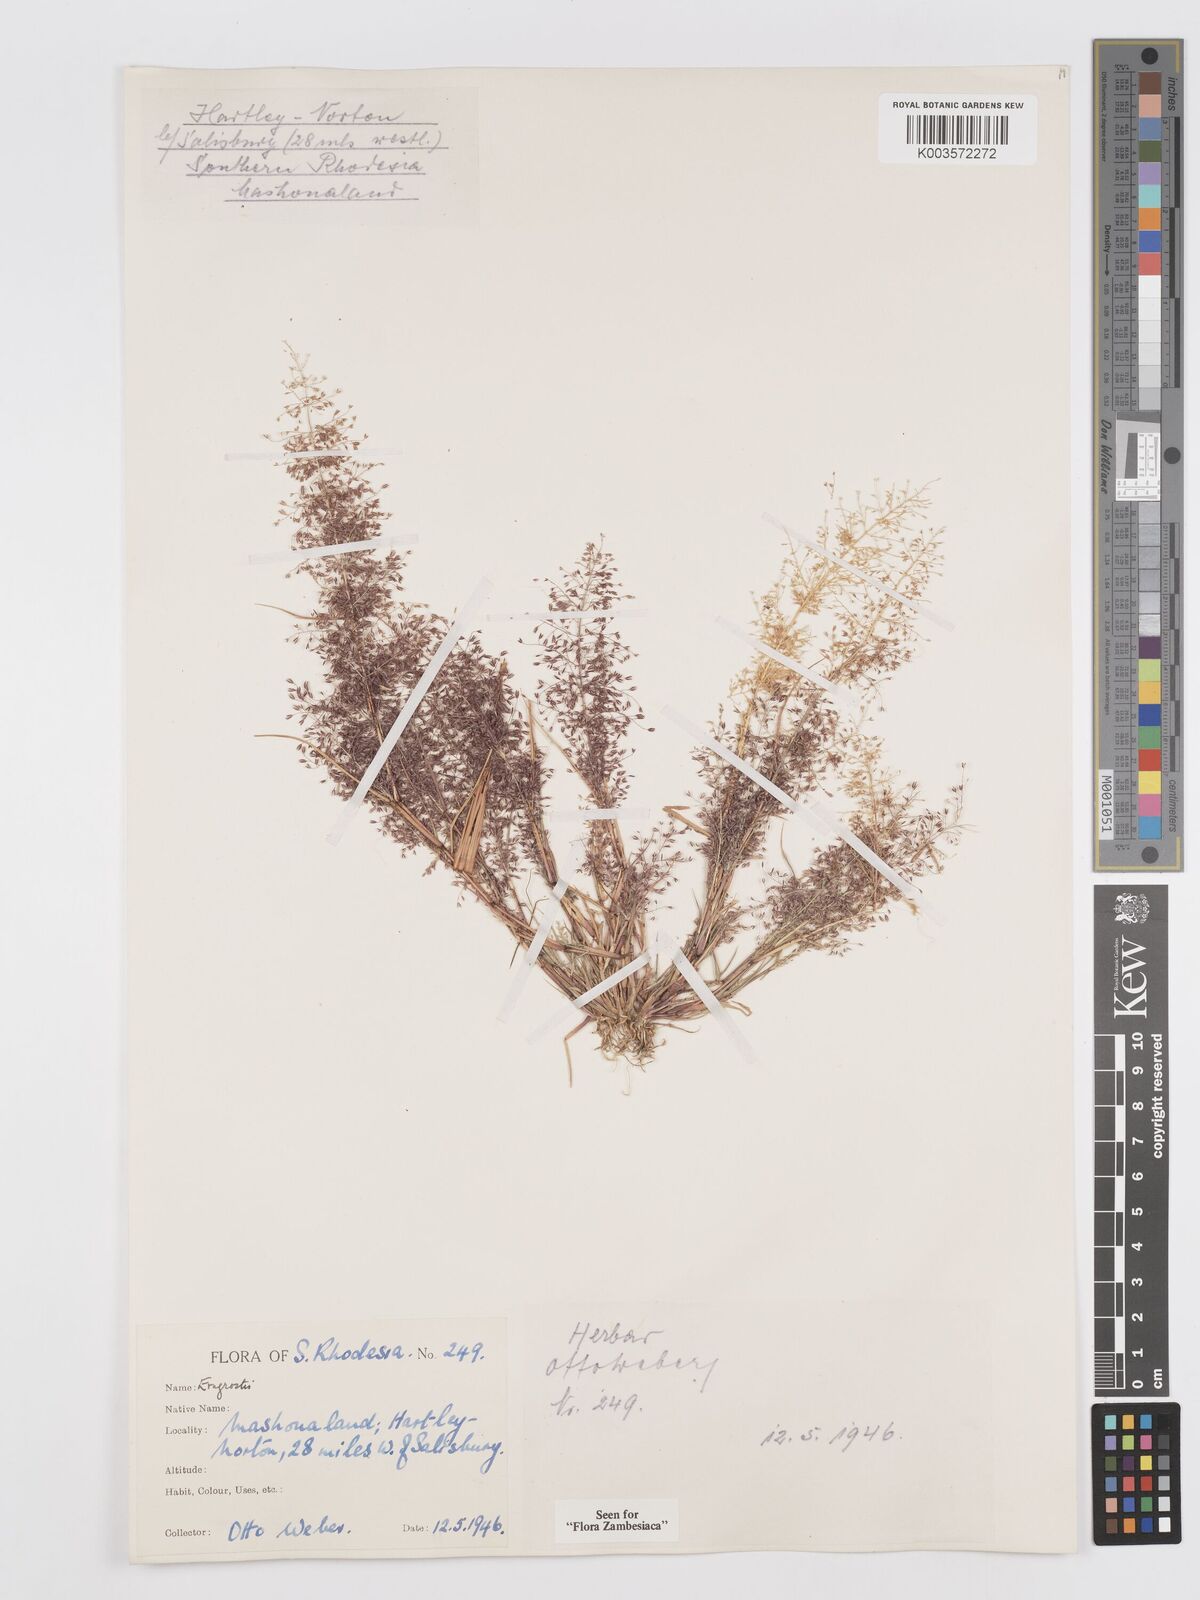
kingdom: Plantae
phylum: Tracheophyta
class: Liliopsida
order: Poales
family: Poaceae
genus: Eragrostis
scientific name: Eragrostis
